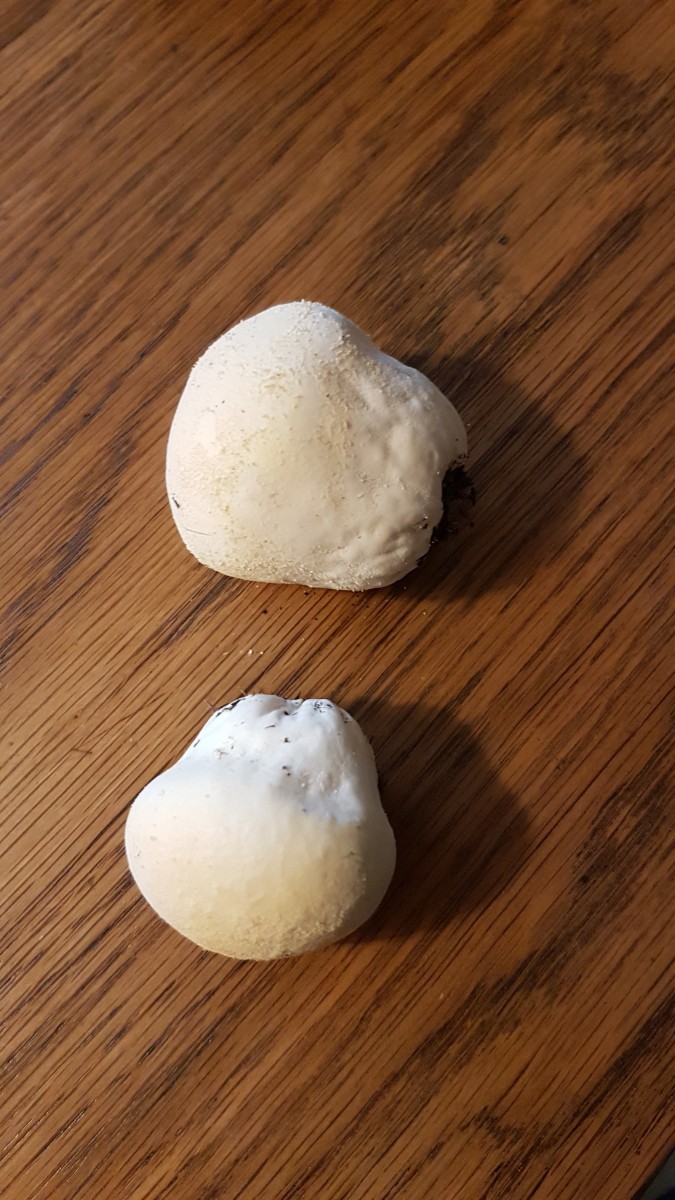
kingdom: Fungi
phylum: Basidiomycota
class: Agaricomycetes
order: Agaricales
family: Lycoperdaceae
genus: Lycoperdon
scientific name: Lycoperdon pratense
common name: flad støvbold
